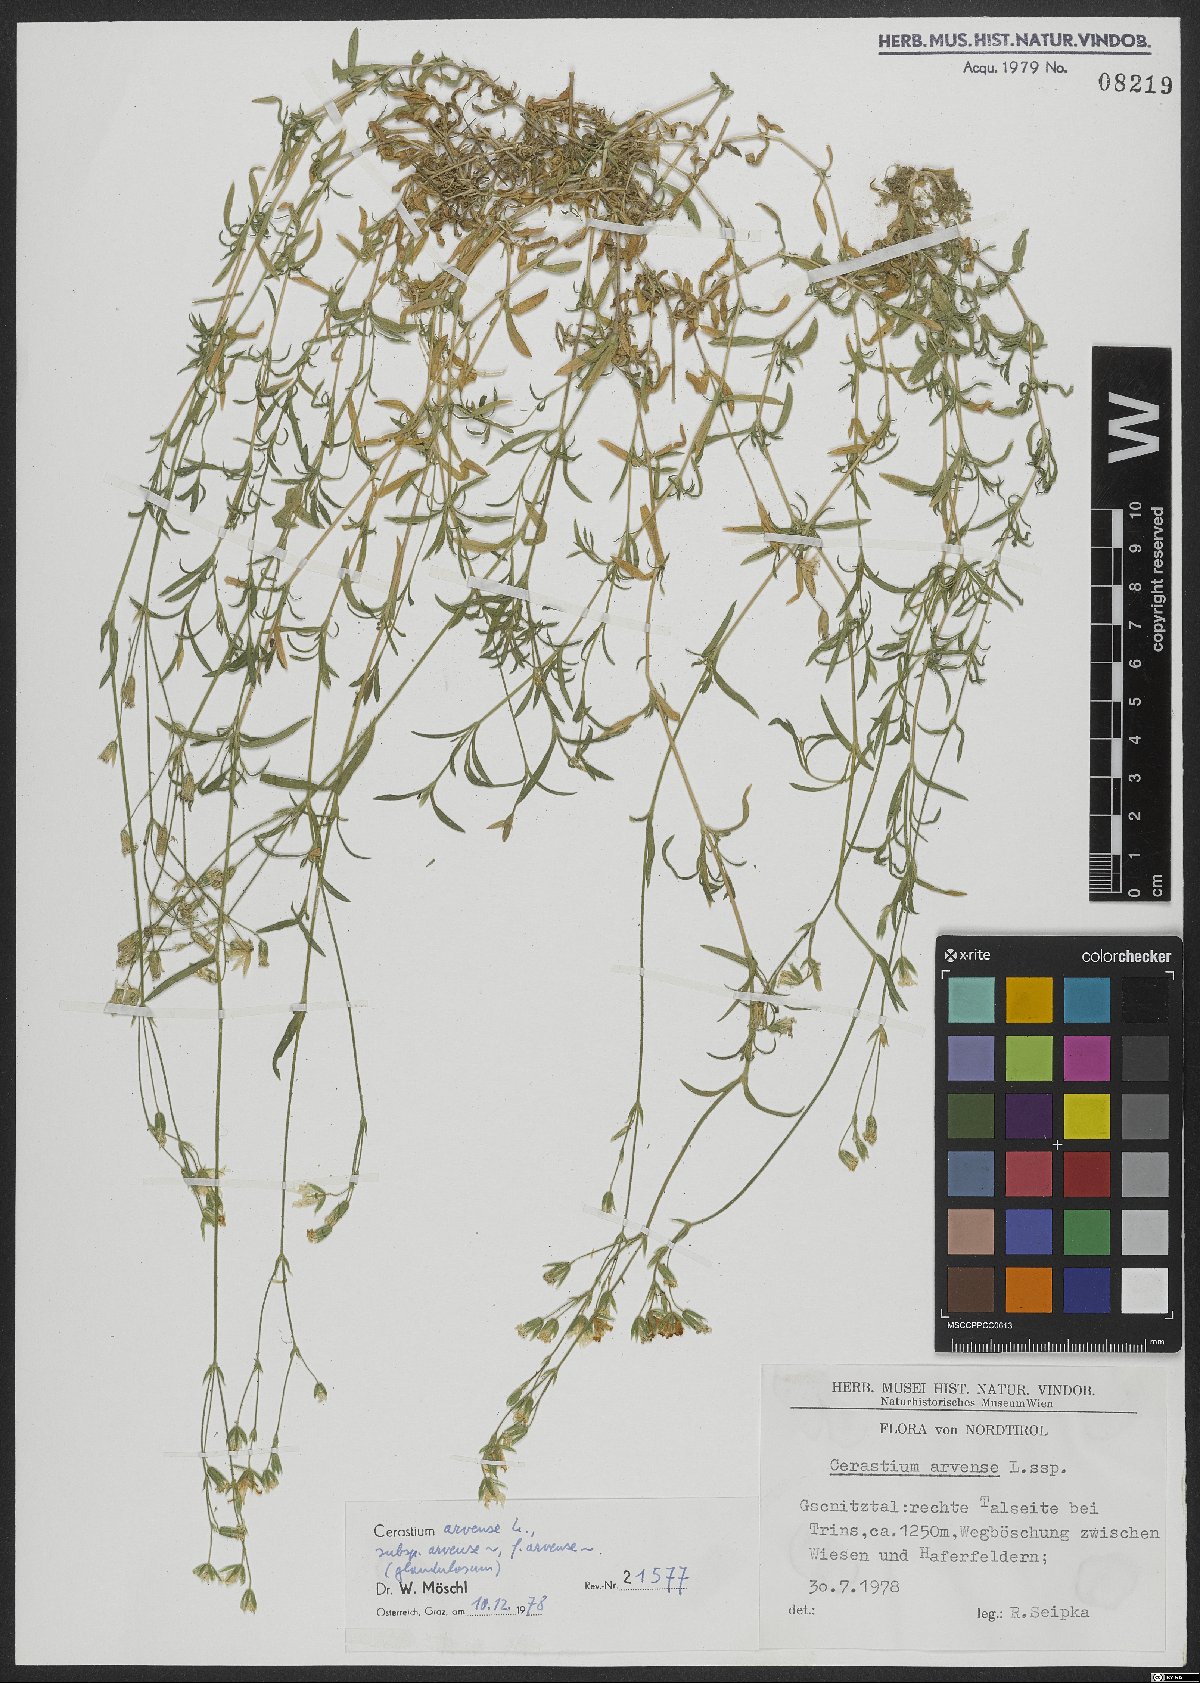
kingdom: Plantae
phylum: Tracheophyta
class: Magnoliopsida
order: Caryophyllales
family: Caryophyllaceae
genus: Cerastium
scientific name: Cerastium arvense
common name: Field mouse-ear
